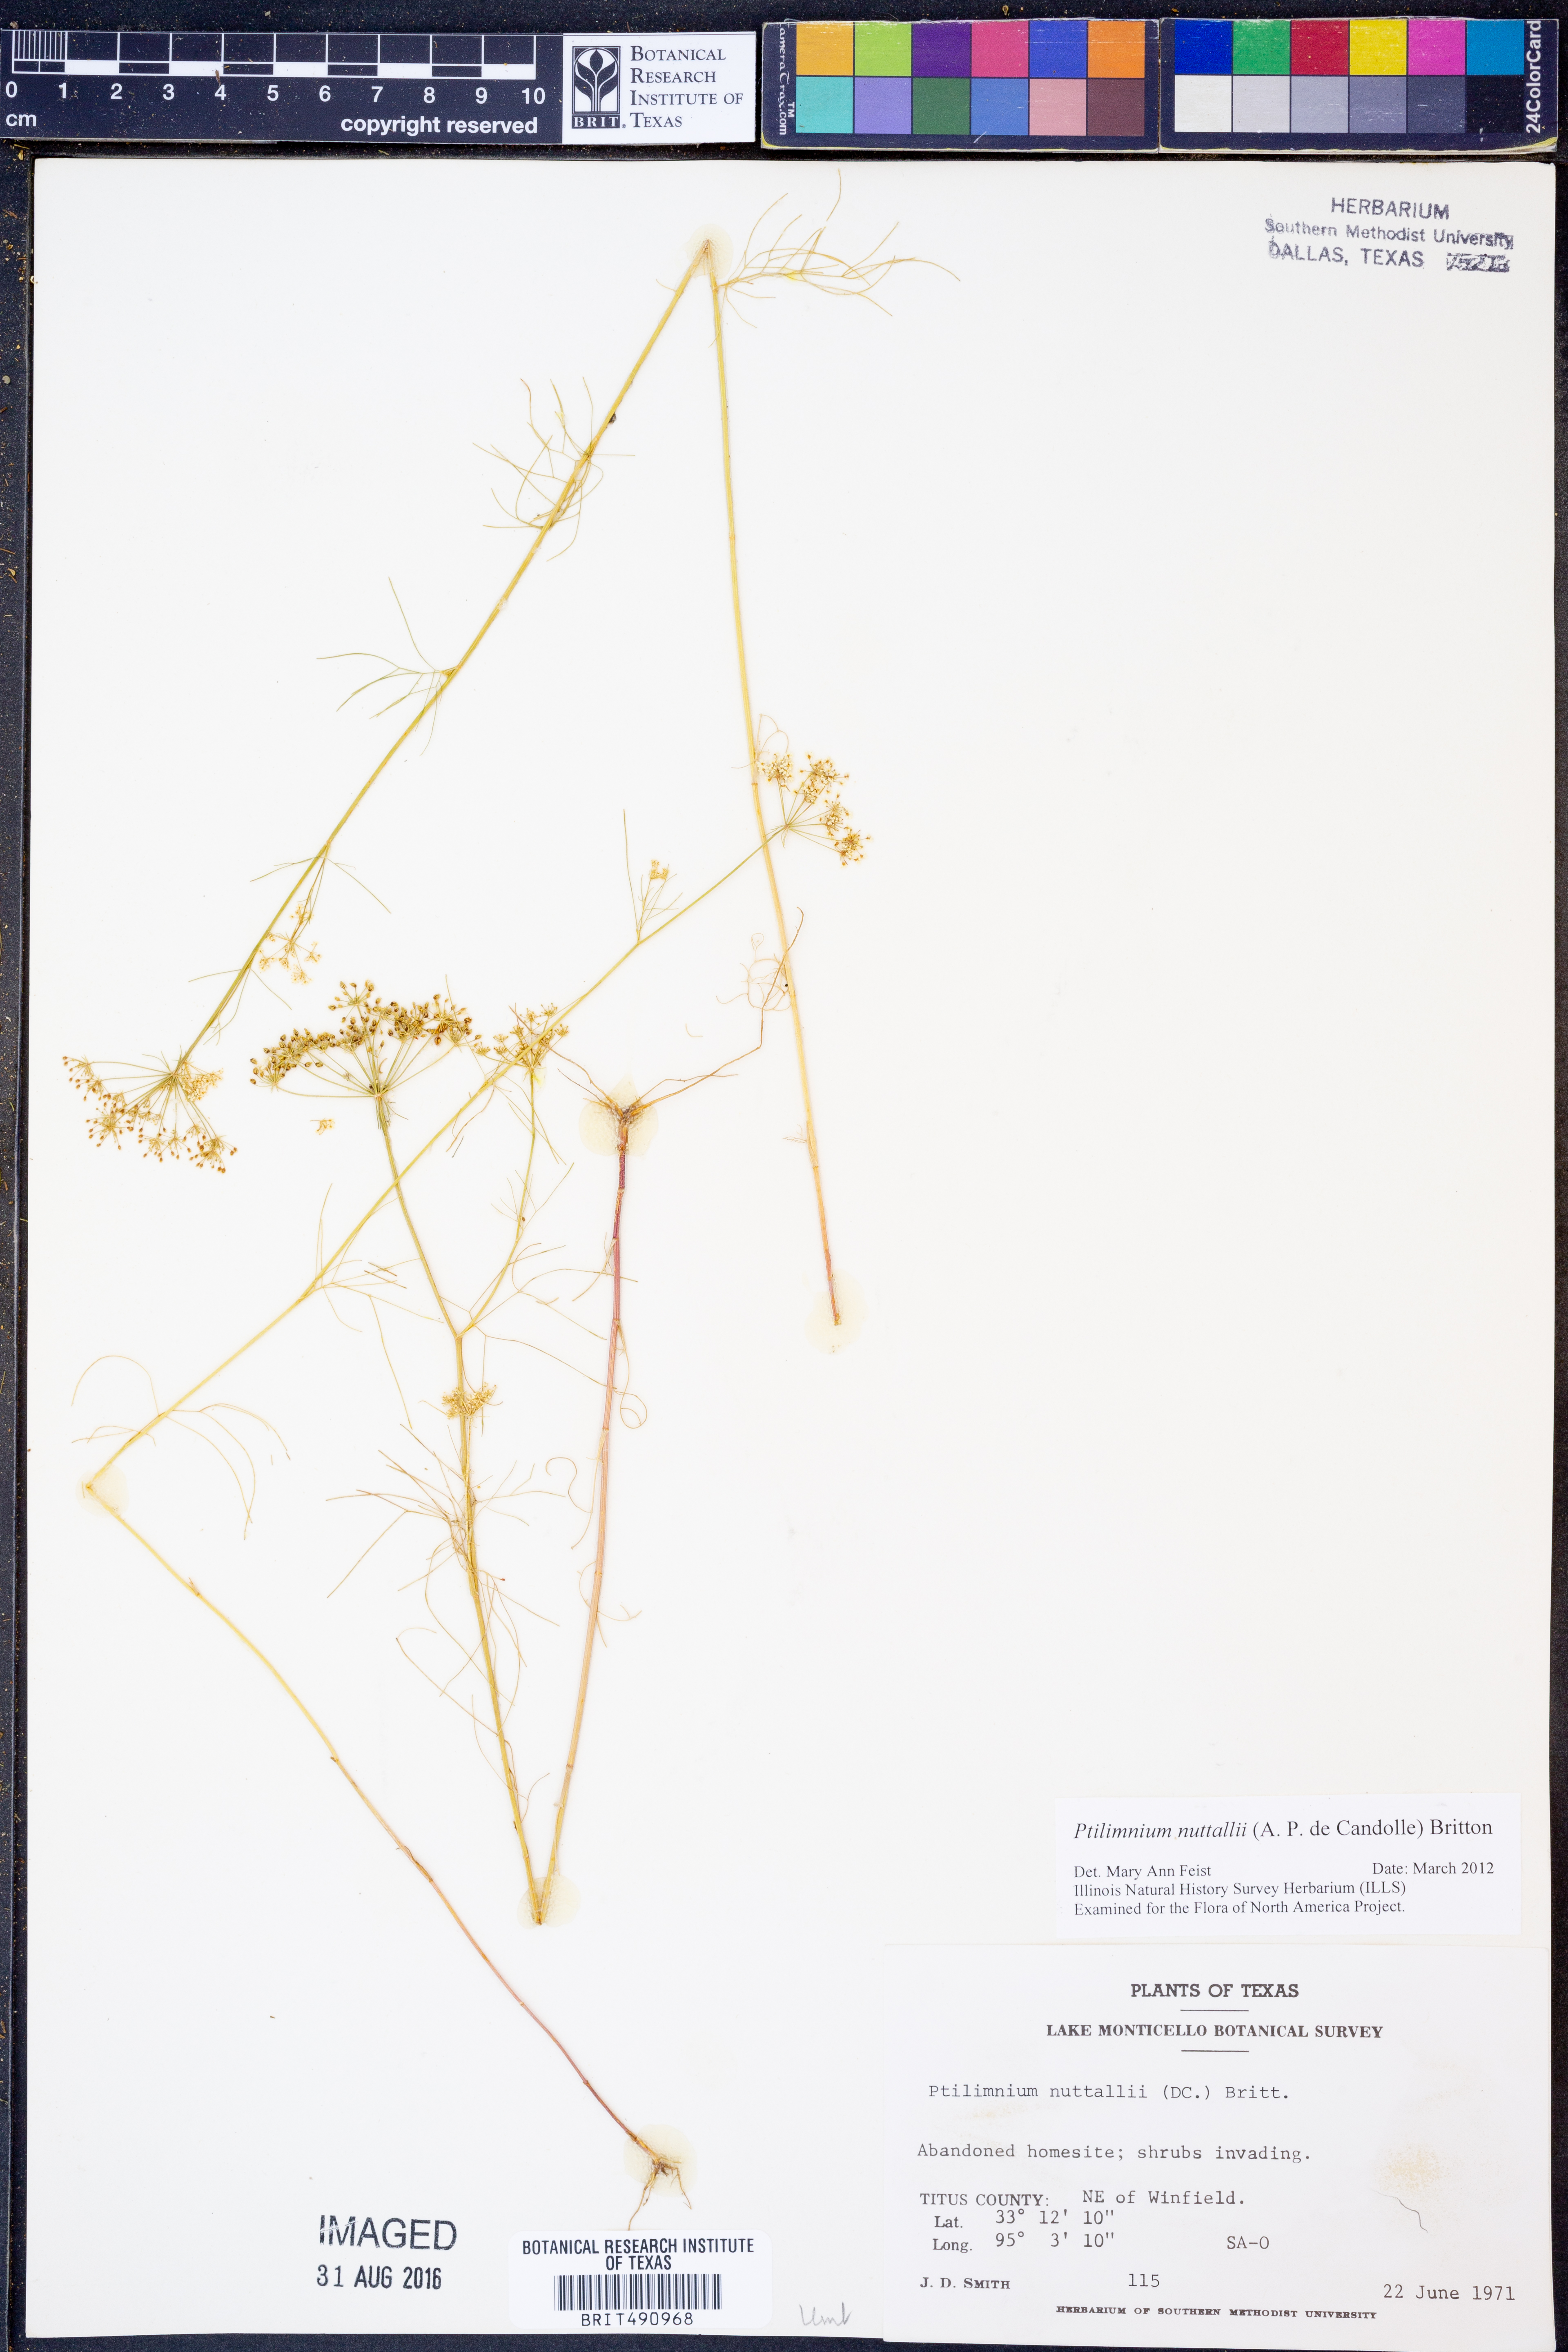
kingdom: Plantae
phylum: Tracheophyta
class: Magnoliopsida
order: Apiales
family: Apiaceae
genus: Ptilimnium
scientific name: Ptilimnium nuttallii
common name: Ozark bishop's-weed
